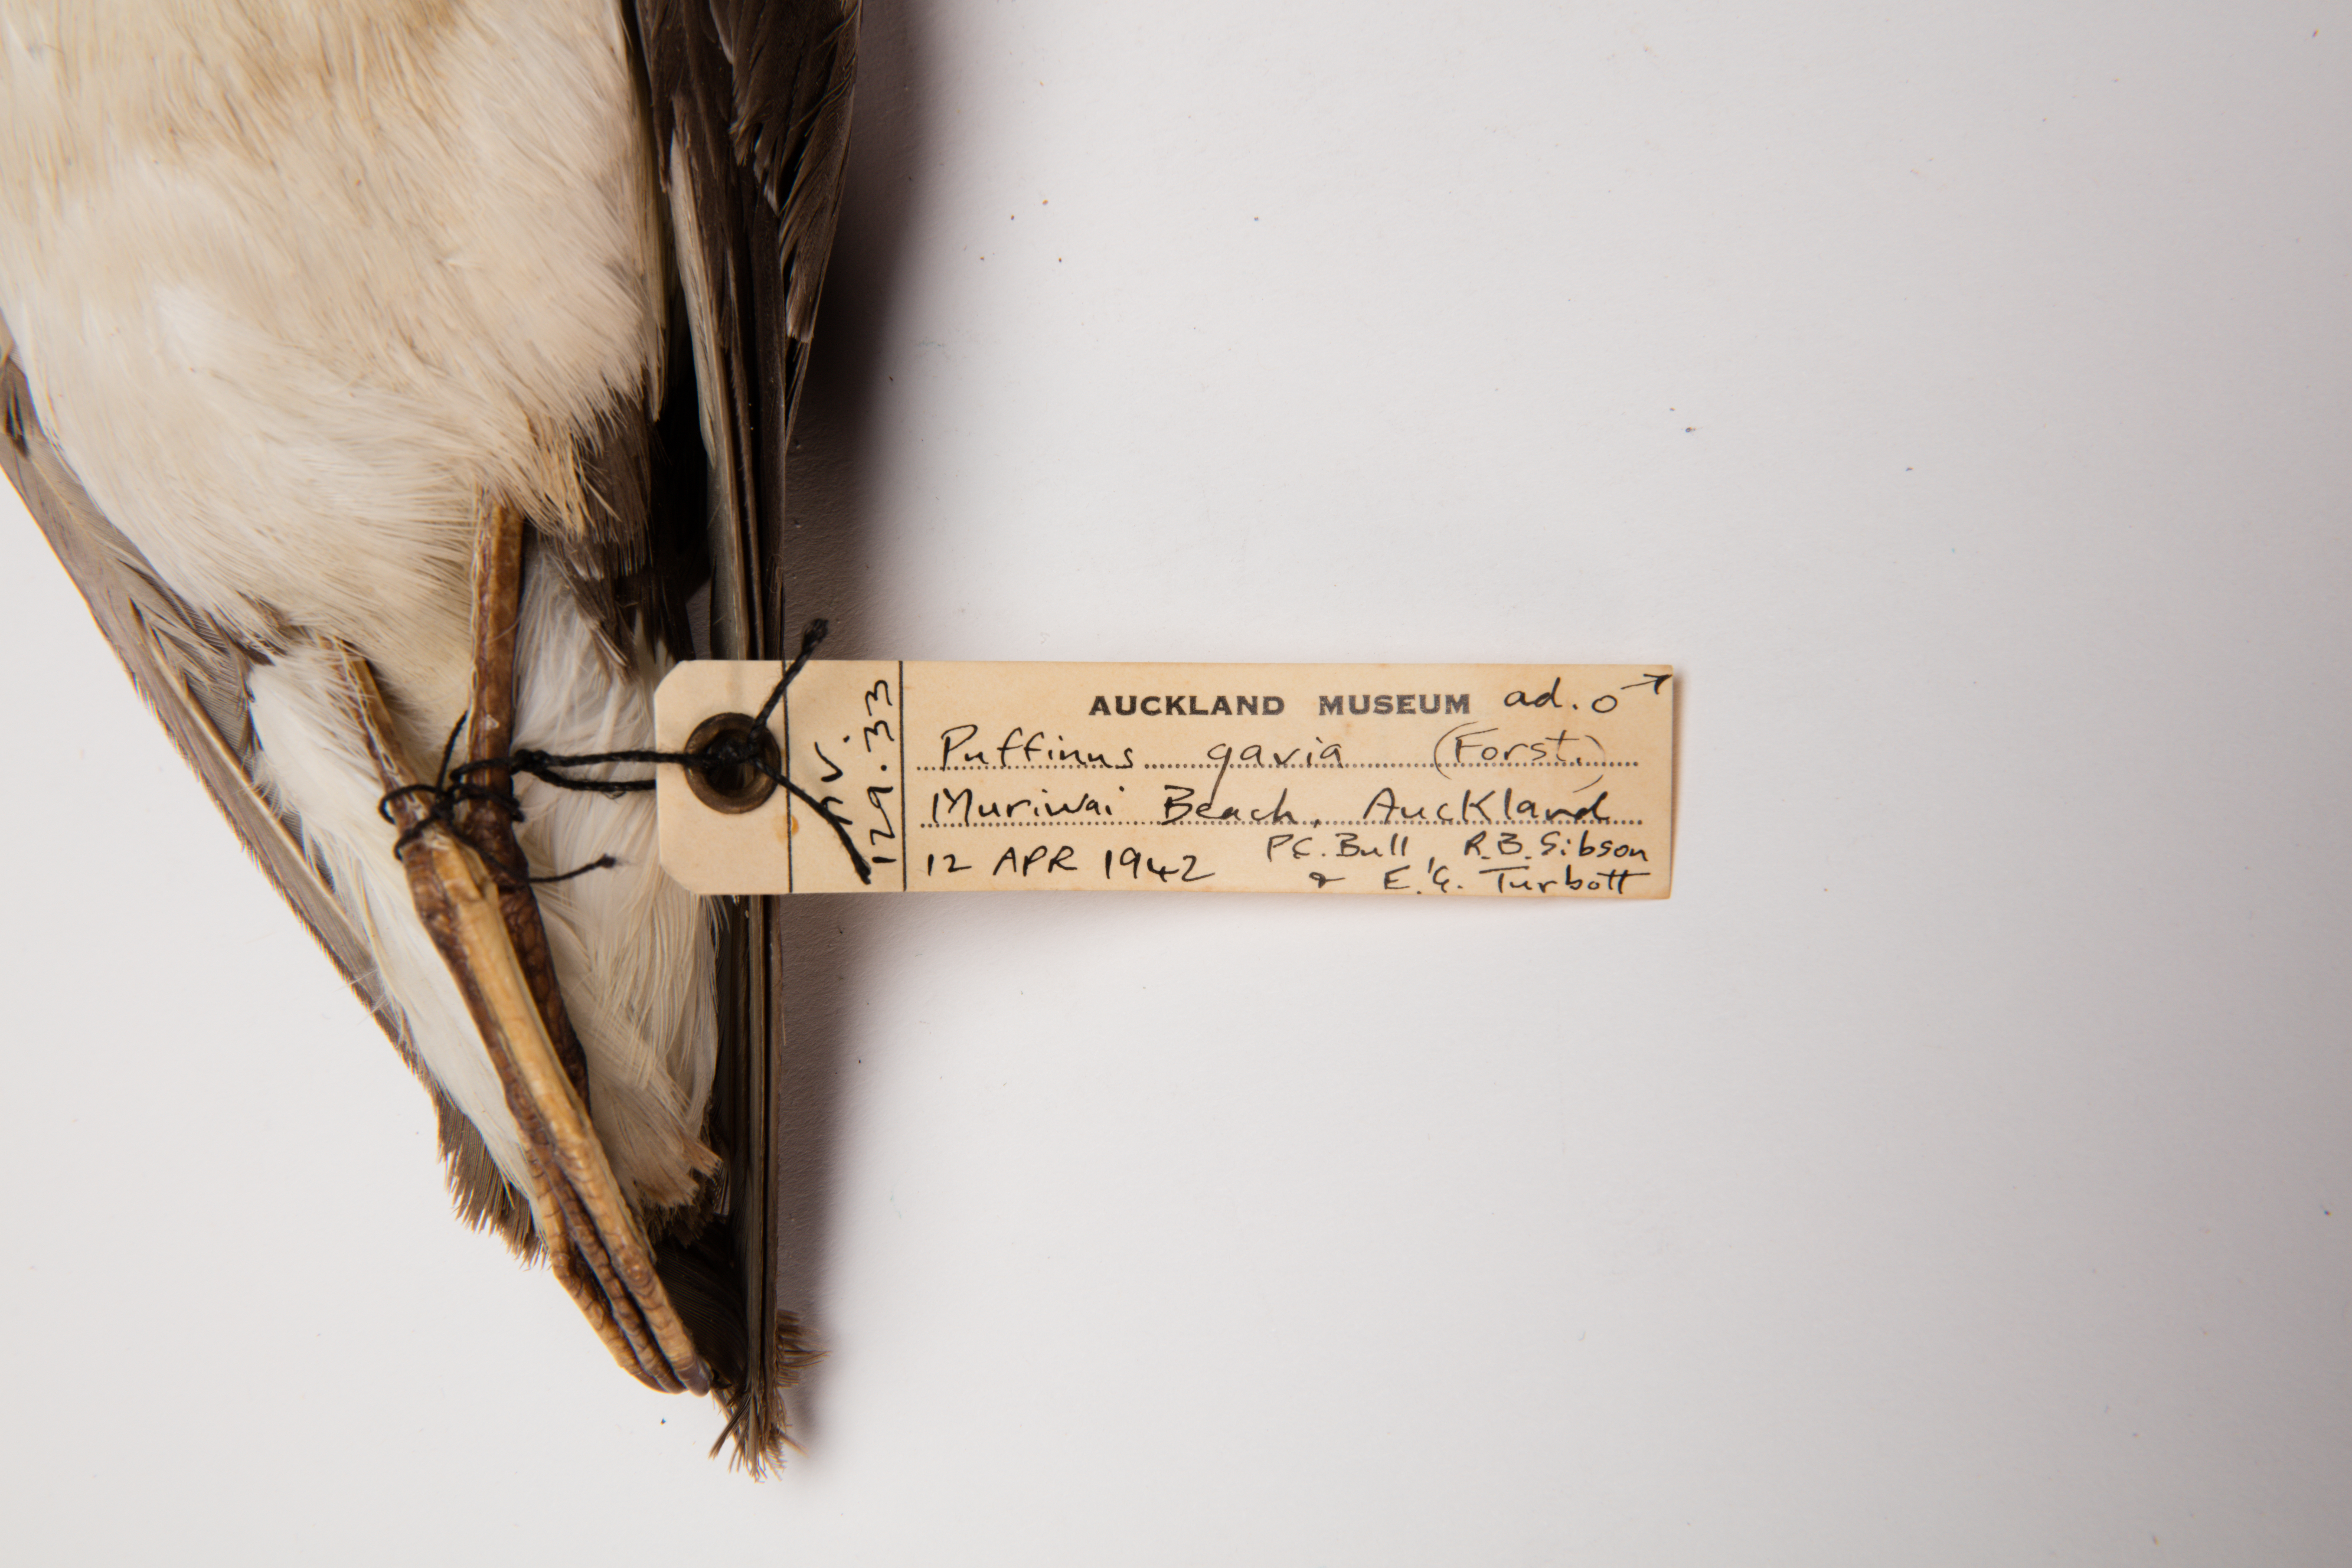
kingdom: Animalia
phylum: Chordata
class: Aves
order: Procellariiformes
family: Procellariidae
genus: Ardenna
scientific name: Ardenna
